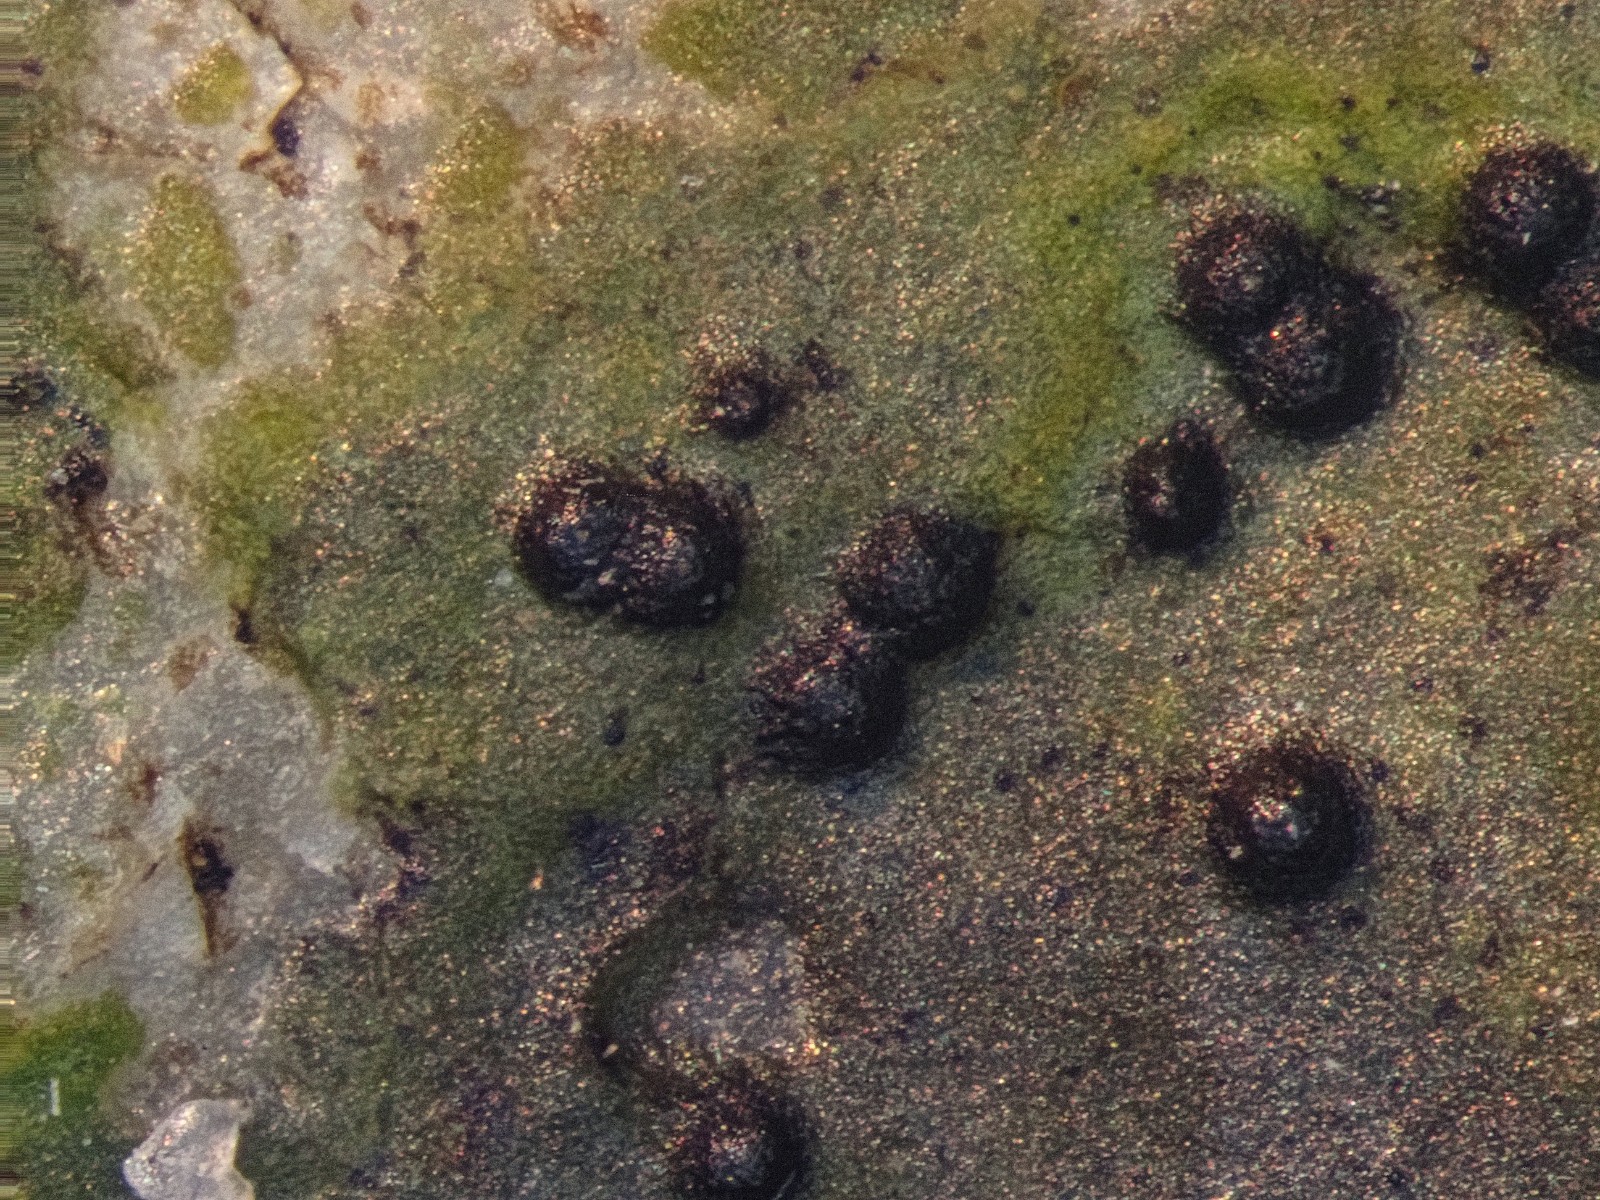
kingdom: Fungi
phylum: Ascomycota
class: Eurotiomycetes
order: Verrucariales
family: Verrucariaceae
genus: Verrucaria
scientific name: Verrucaria halophila
